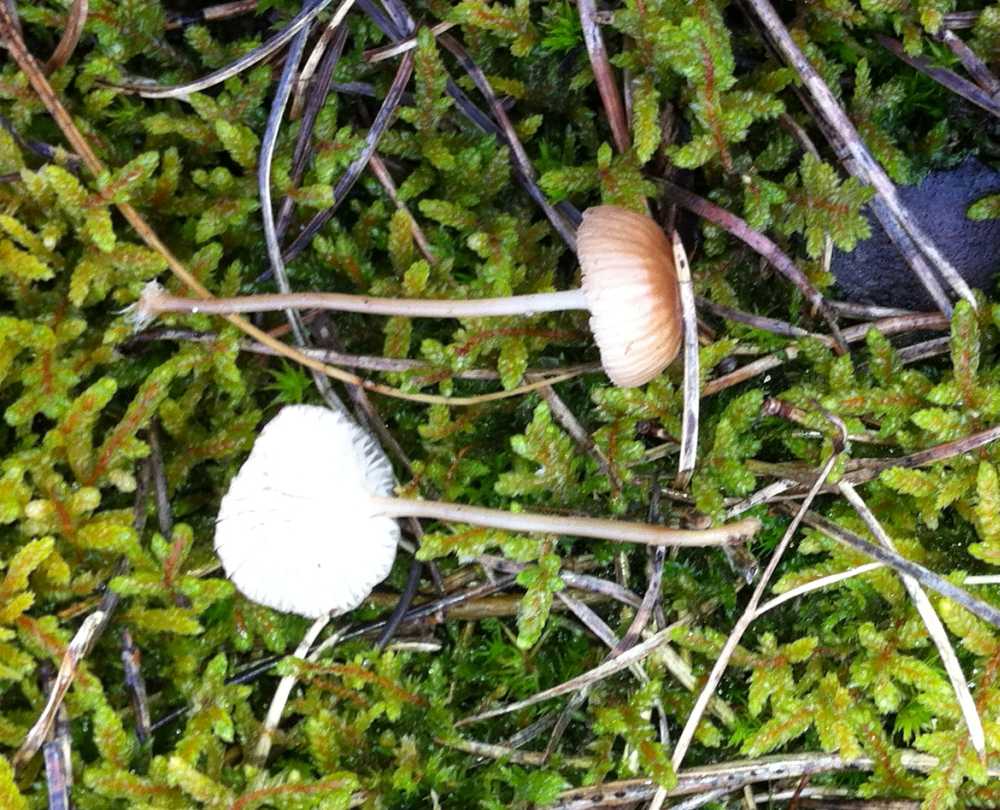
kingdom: Fungi
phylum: Basidiomycota
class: Agaricomycetes
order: Agaricales
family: Mycenaceae
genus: Mycena
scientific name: Mycena clavicularis
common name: fyrre-huesvamp
